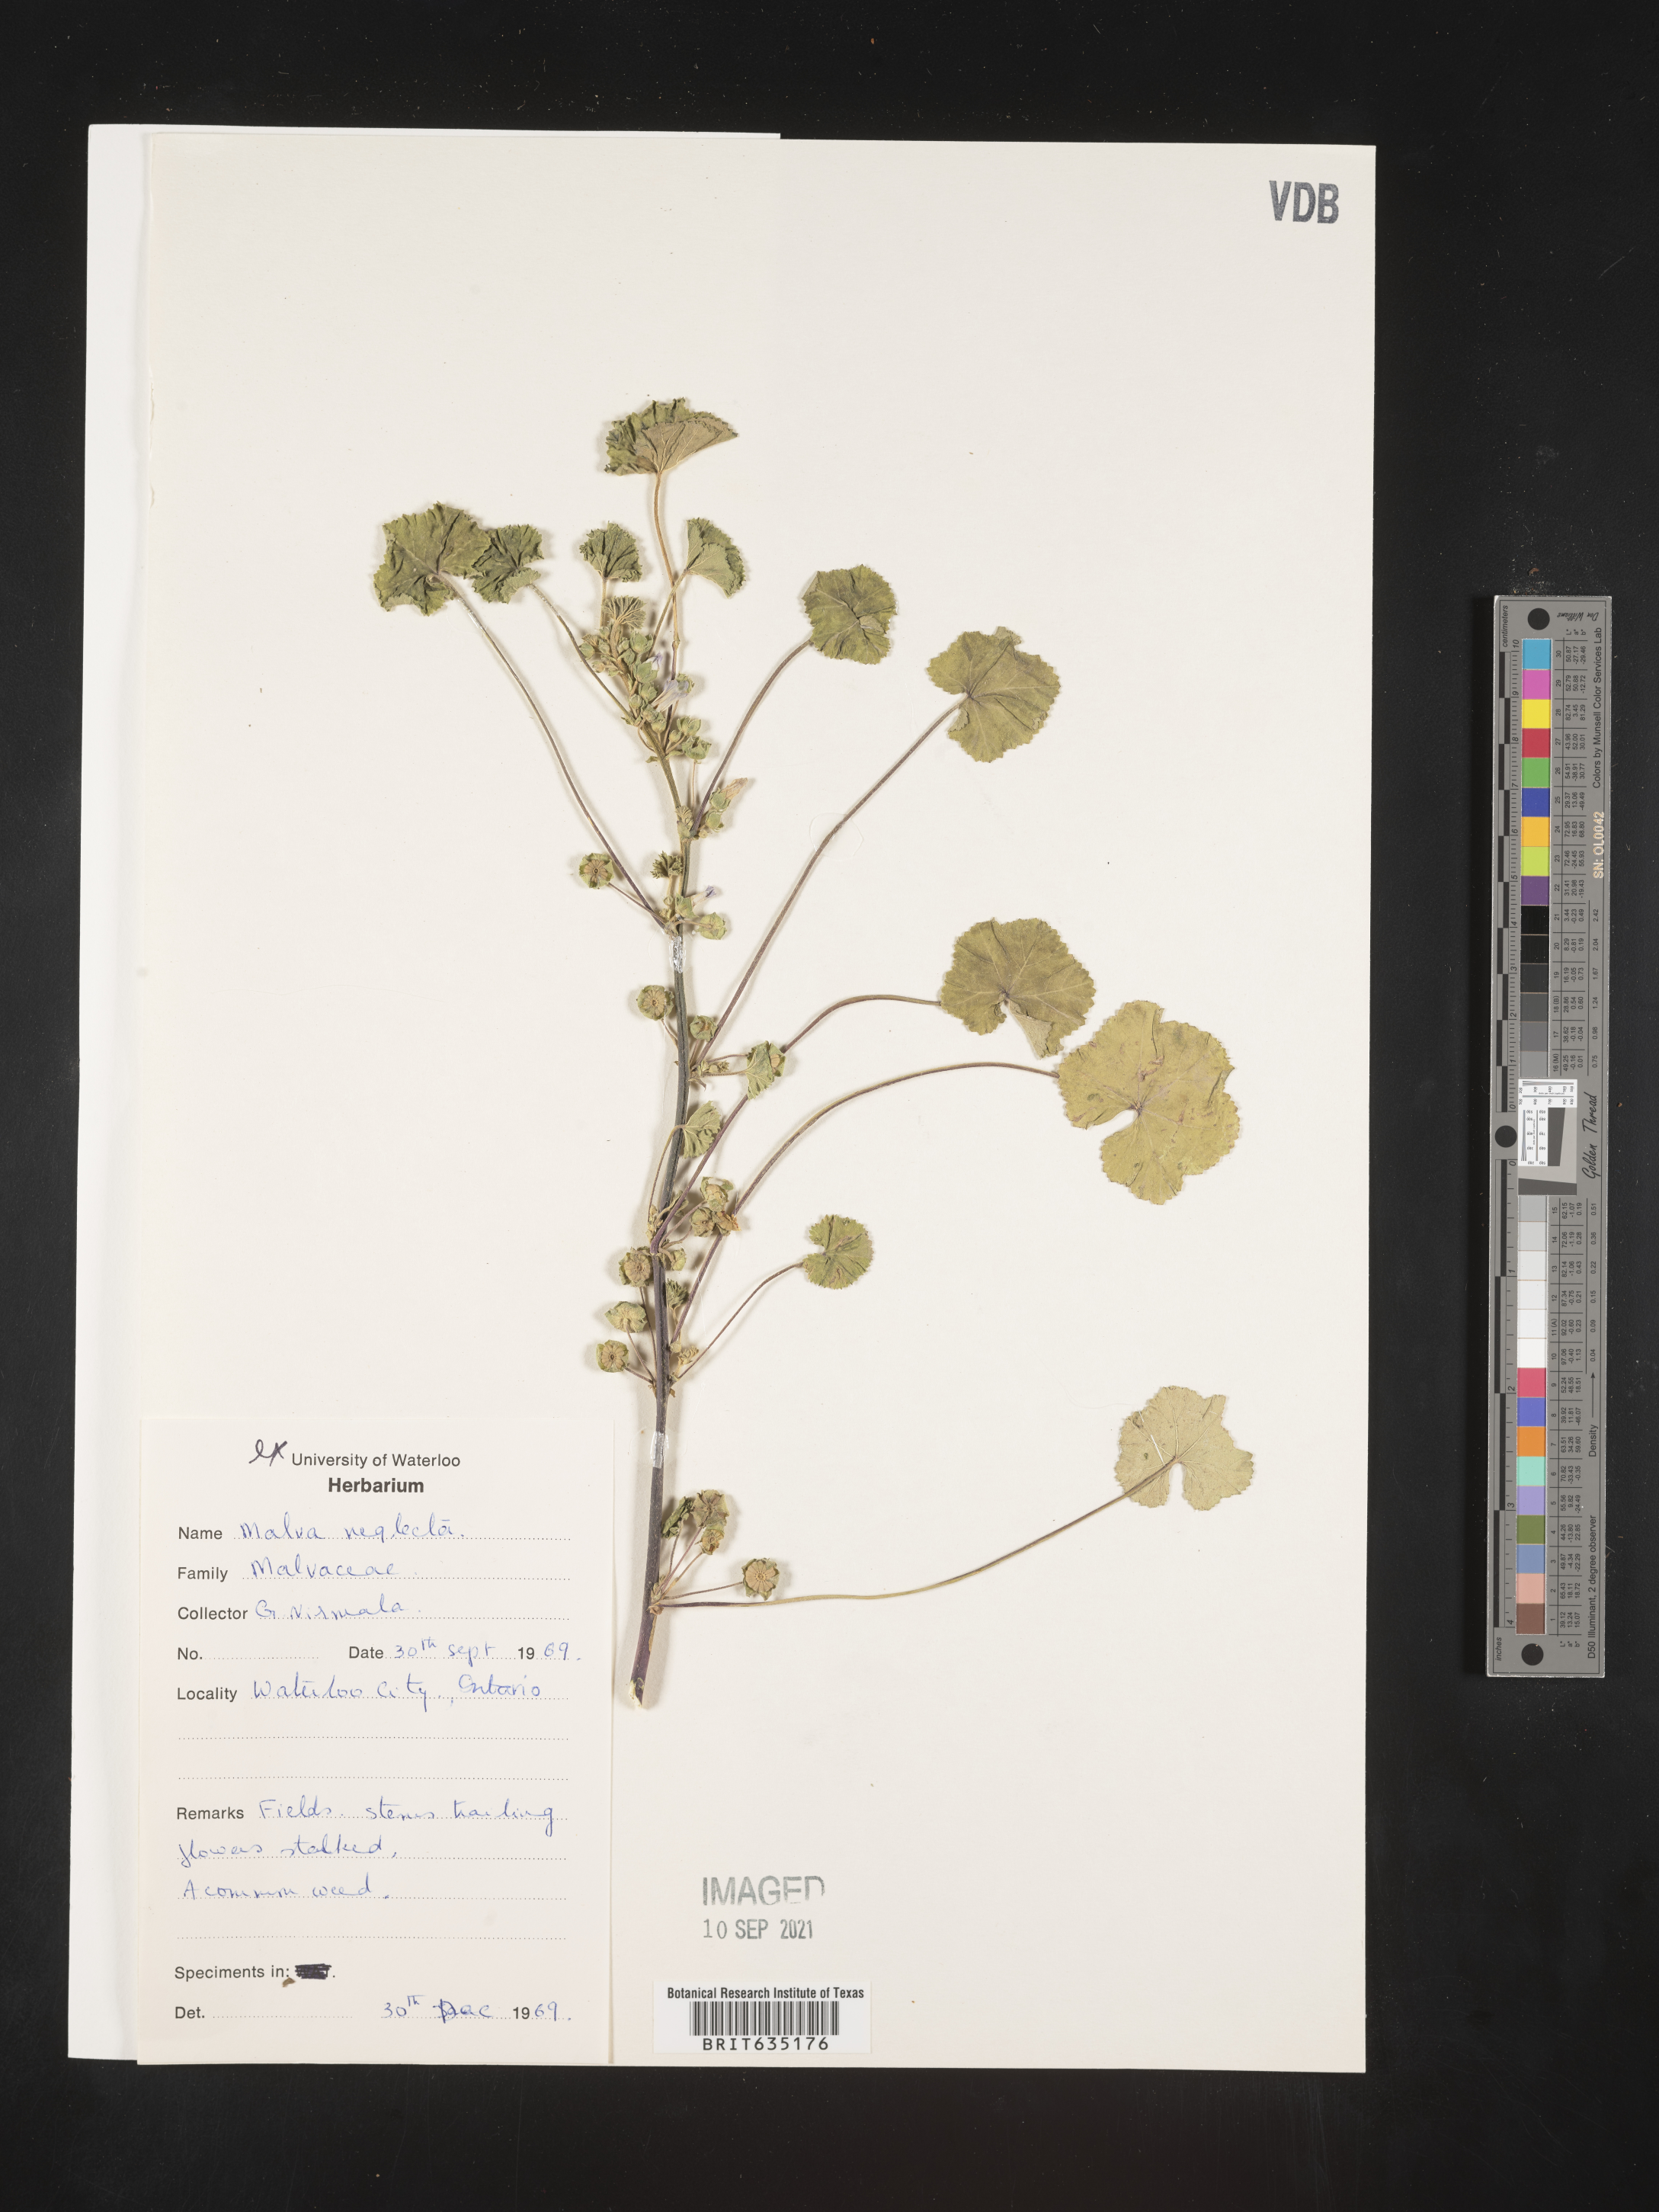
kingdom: Plantae
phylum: Tracheophyta
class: Magnoliopsida
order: Malvales
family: Malvaceae
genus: Malva
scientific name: Malva
